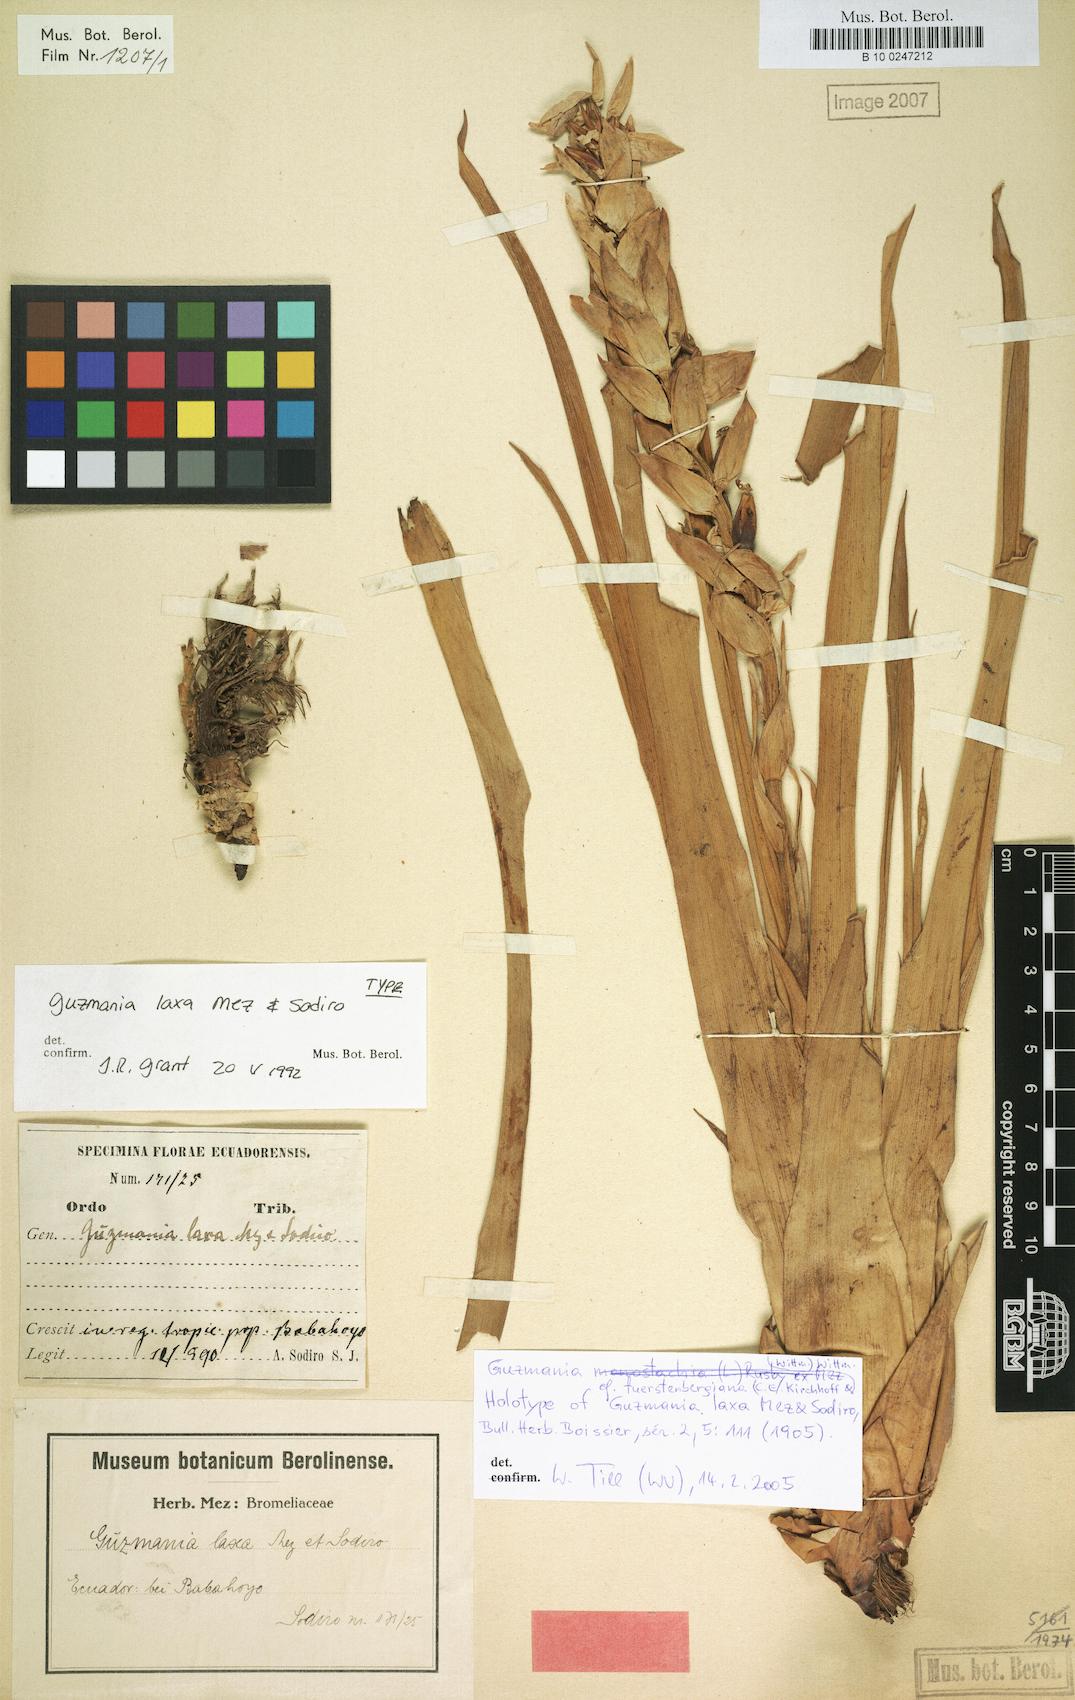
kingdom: Plantae
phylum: Tracheophyta
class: Liliopsida
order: Poales
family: Bromeliaceae
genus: Guzmania
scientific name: Guzmania fuerstenbergiana
